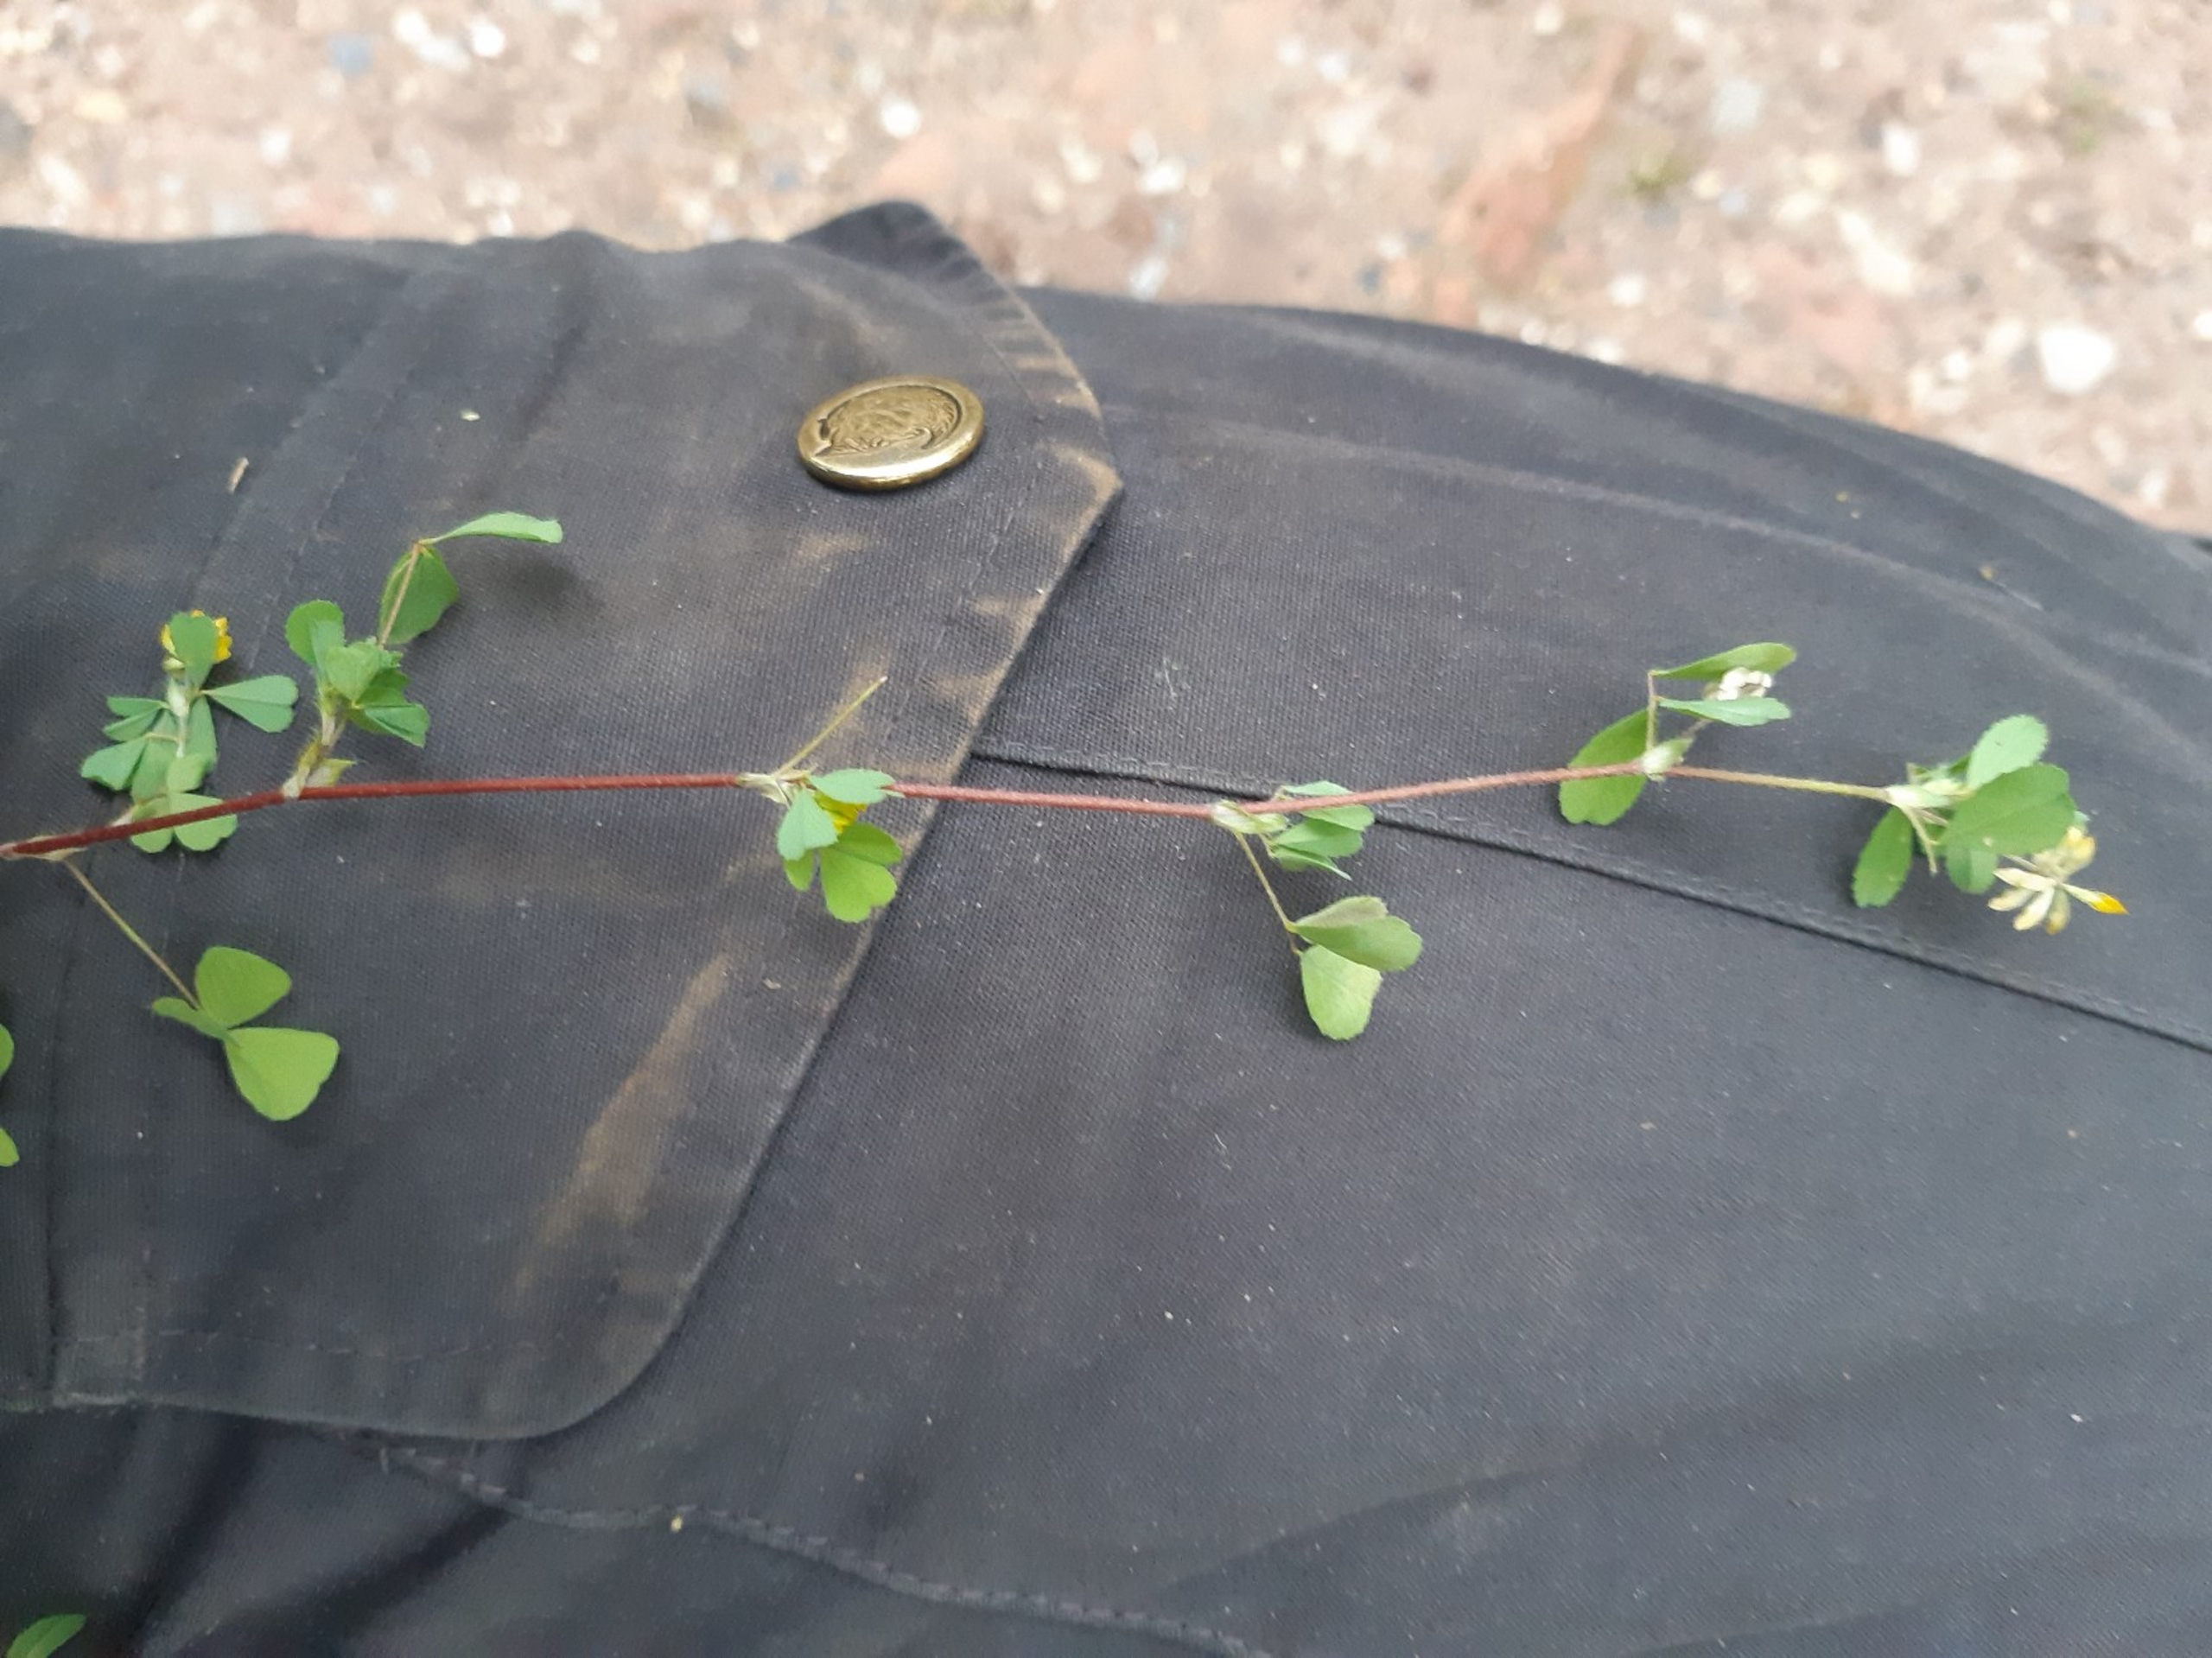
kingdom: Plantae
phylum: Tracheophyta
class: Magnoliopsida
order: Fabales
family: Fabaceae
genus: Trifolium
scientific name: Trifolium dubium
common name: Fin kløver
